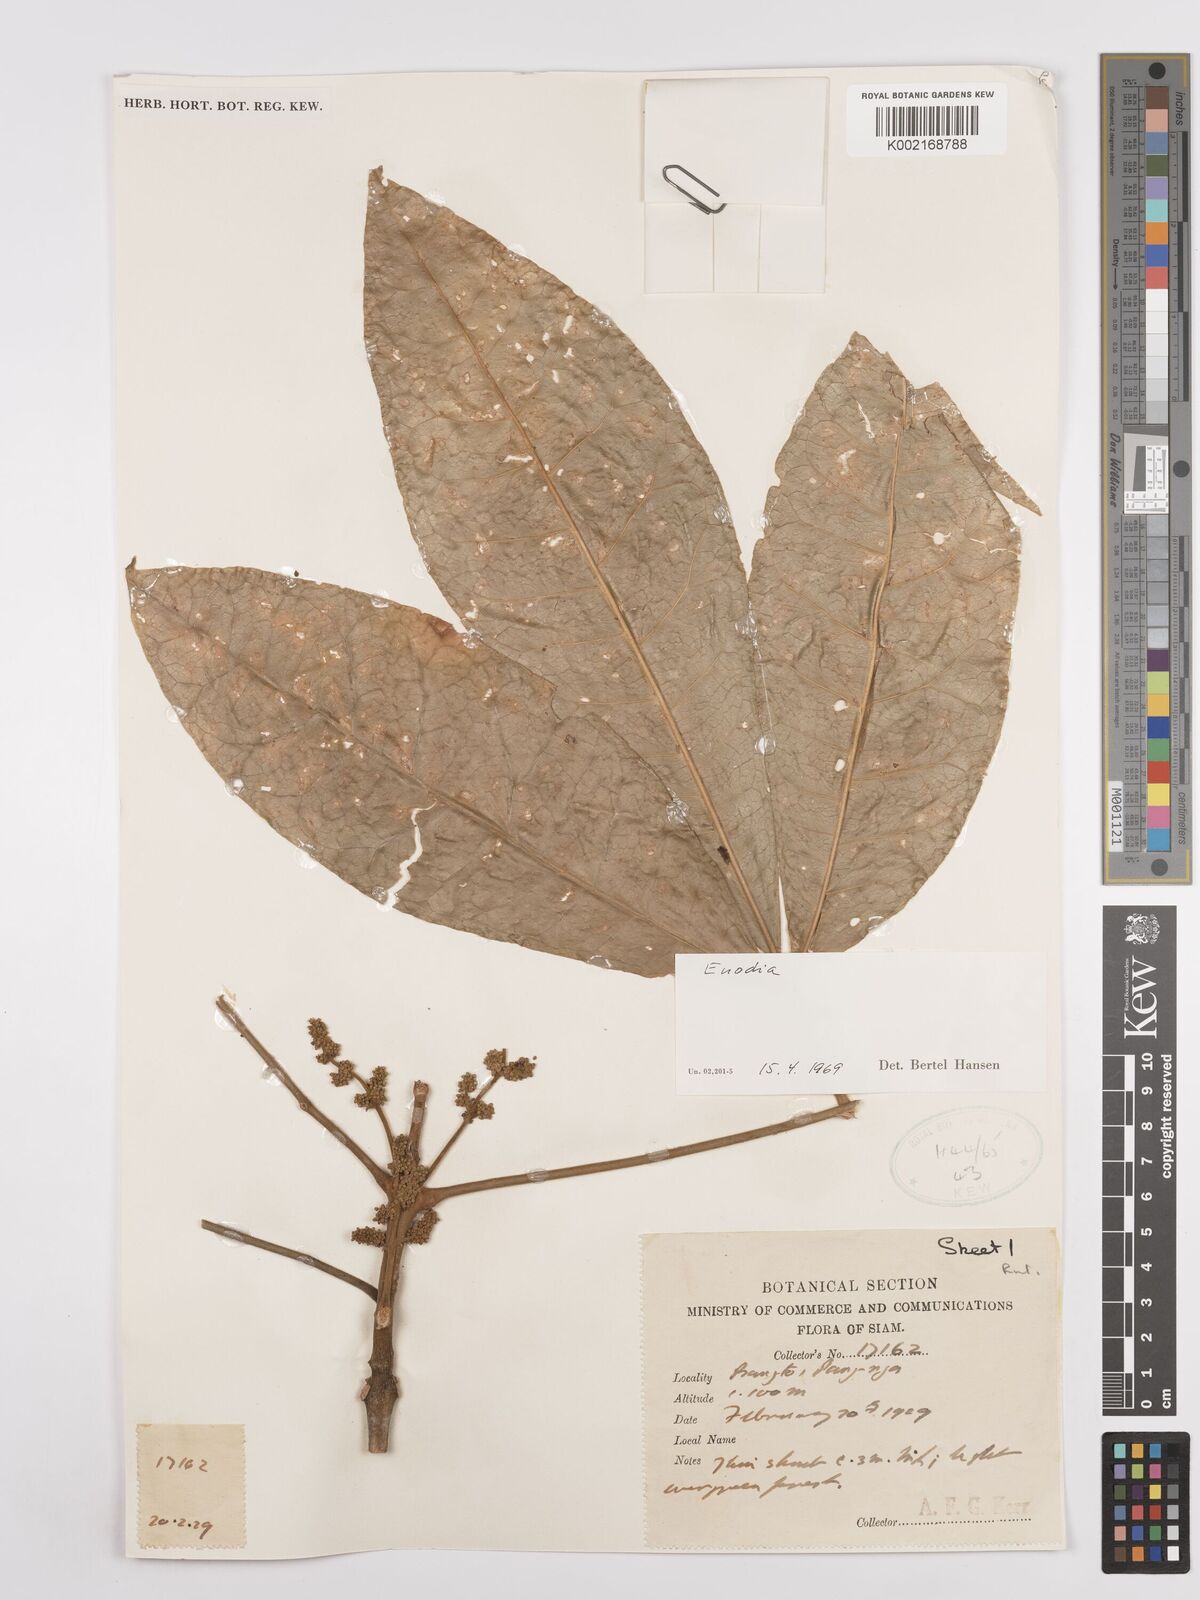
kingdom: Plantae
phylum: Tracheophyta
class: Magnoliopsida
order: Sapindales
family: Rutaceae
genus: Euodia
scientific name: Euodia
